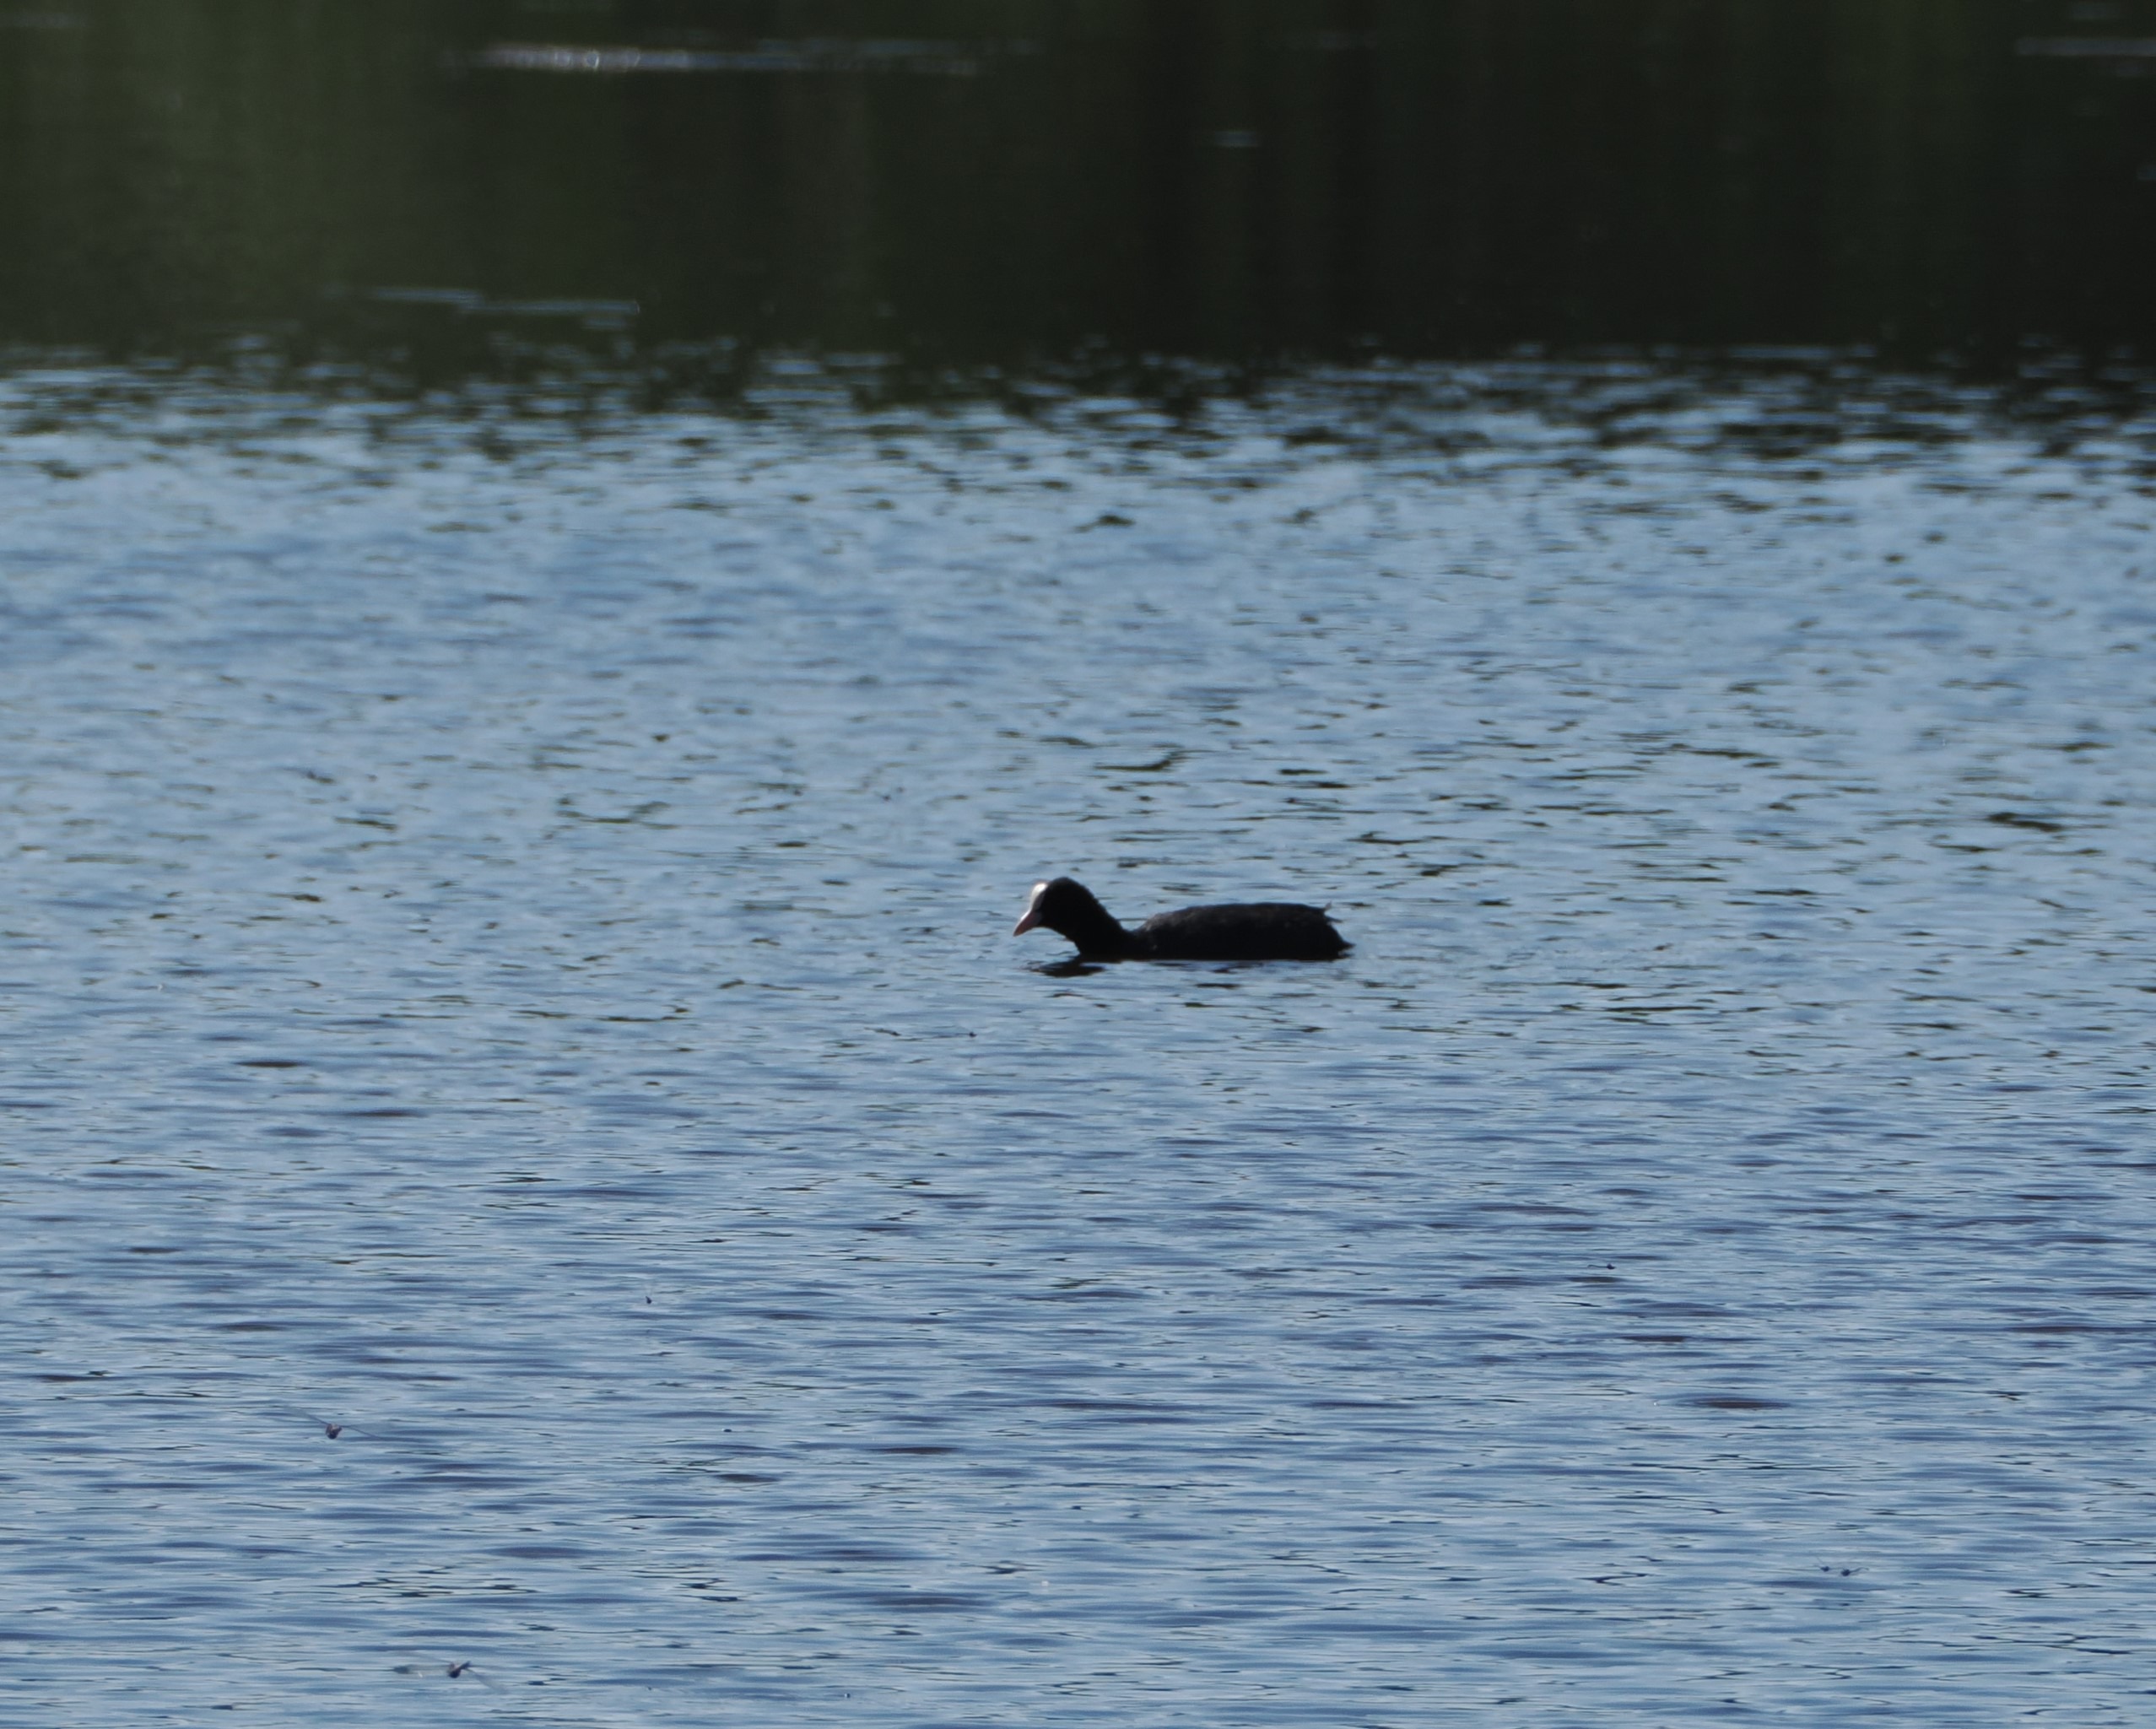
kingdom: Animalia
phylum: Chordata
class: Aves
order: Gruiformes
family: Rallidae
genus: Fulica
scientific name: Fulica atra
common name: Blishøne
